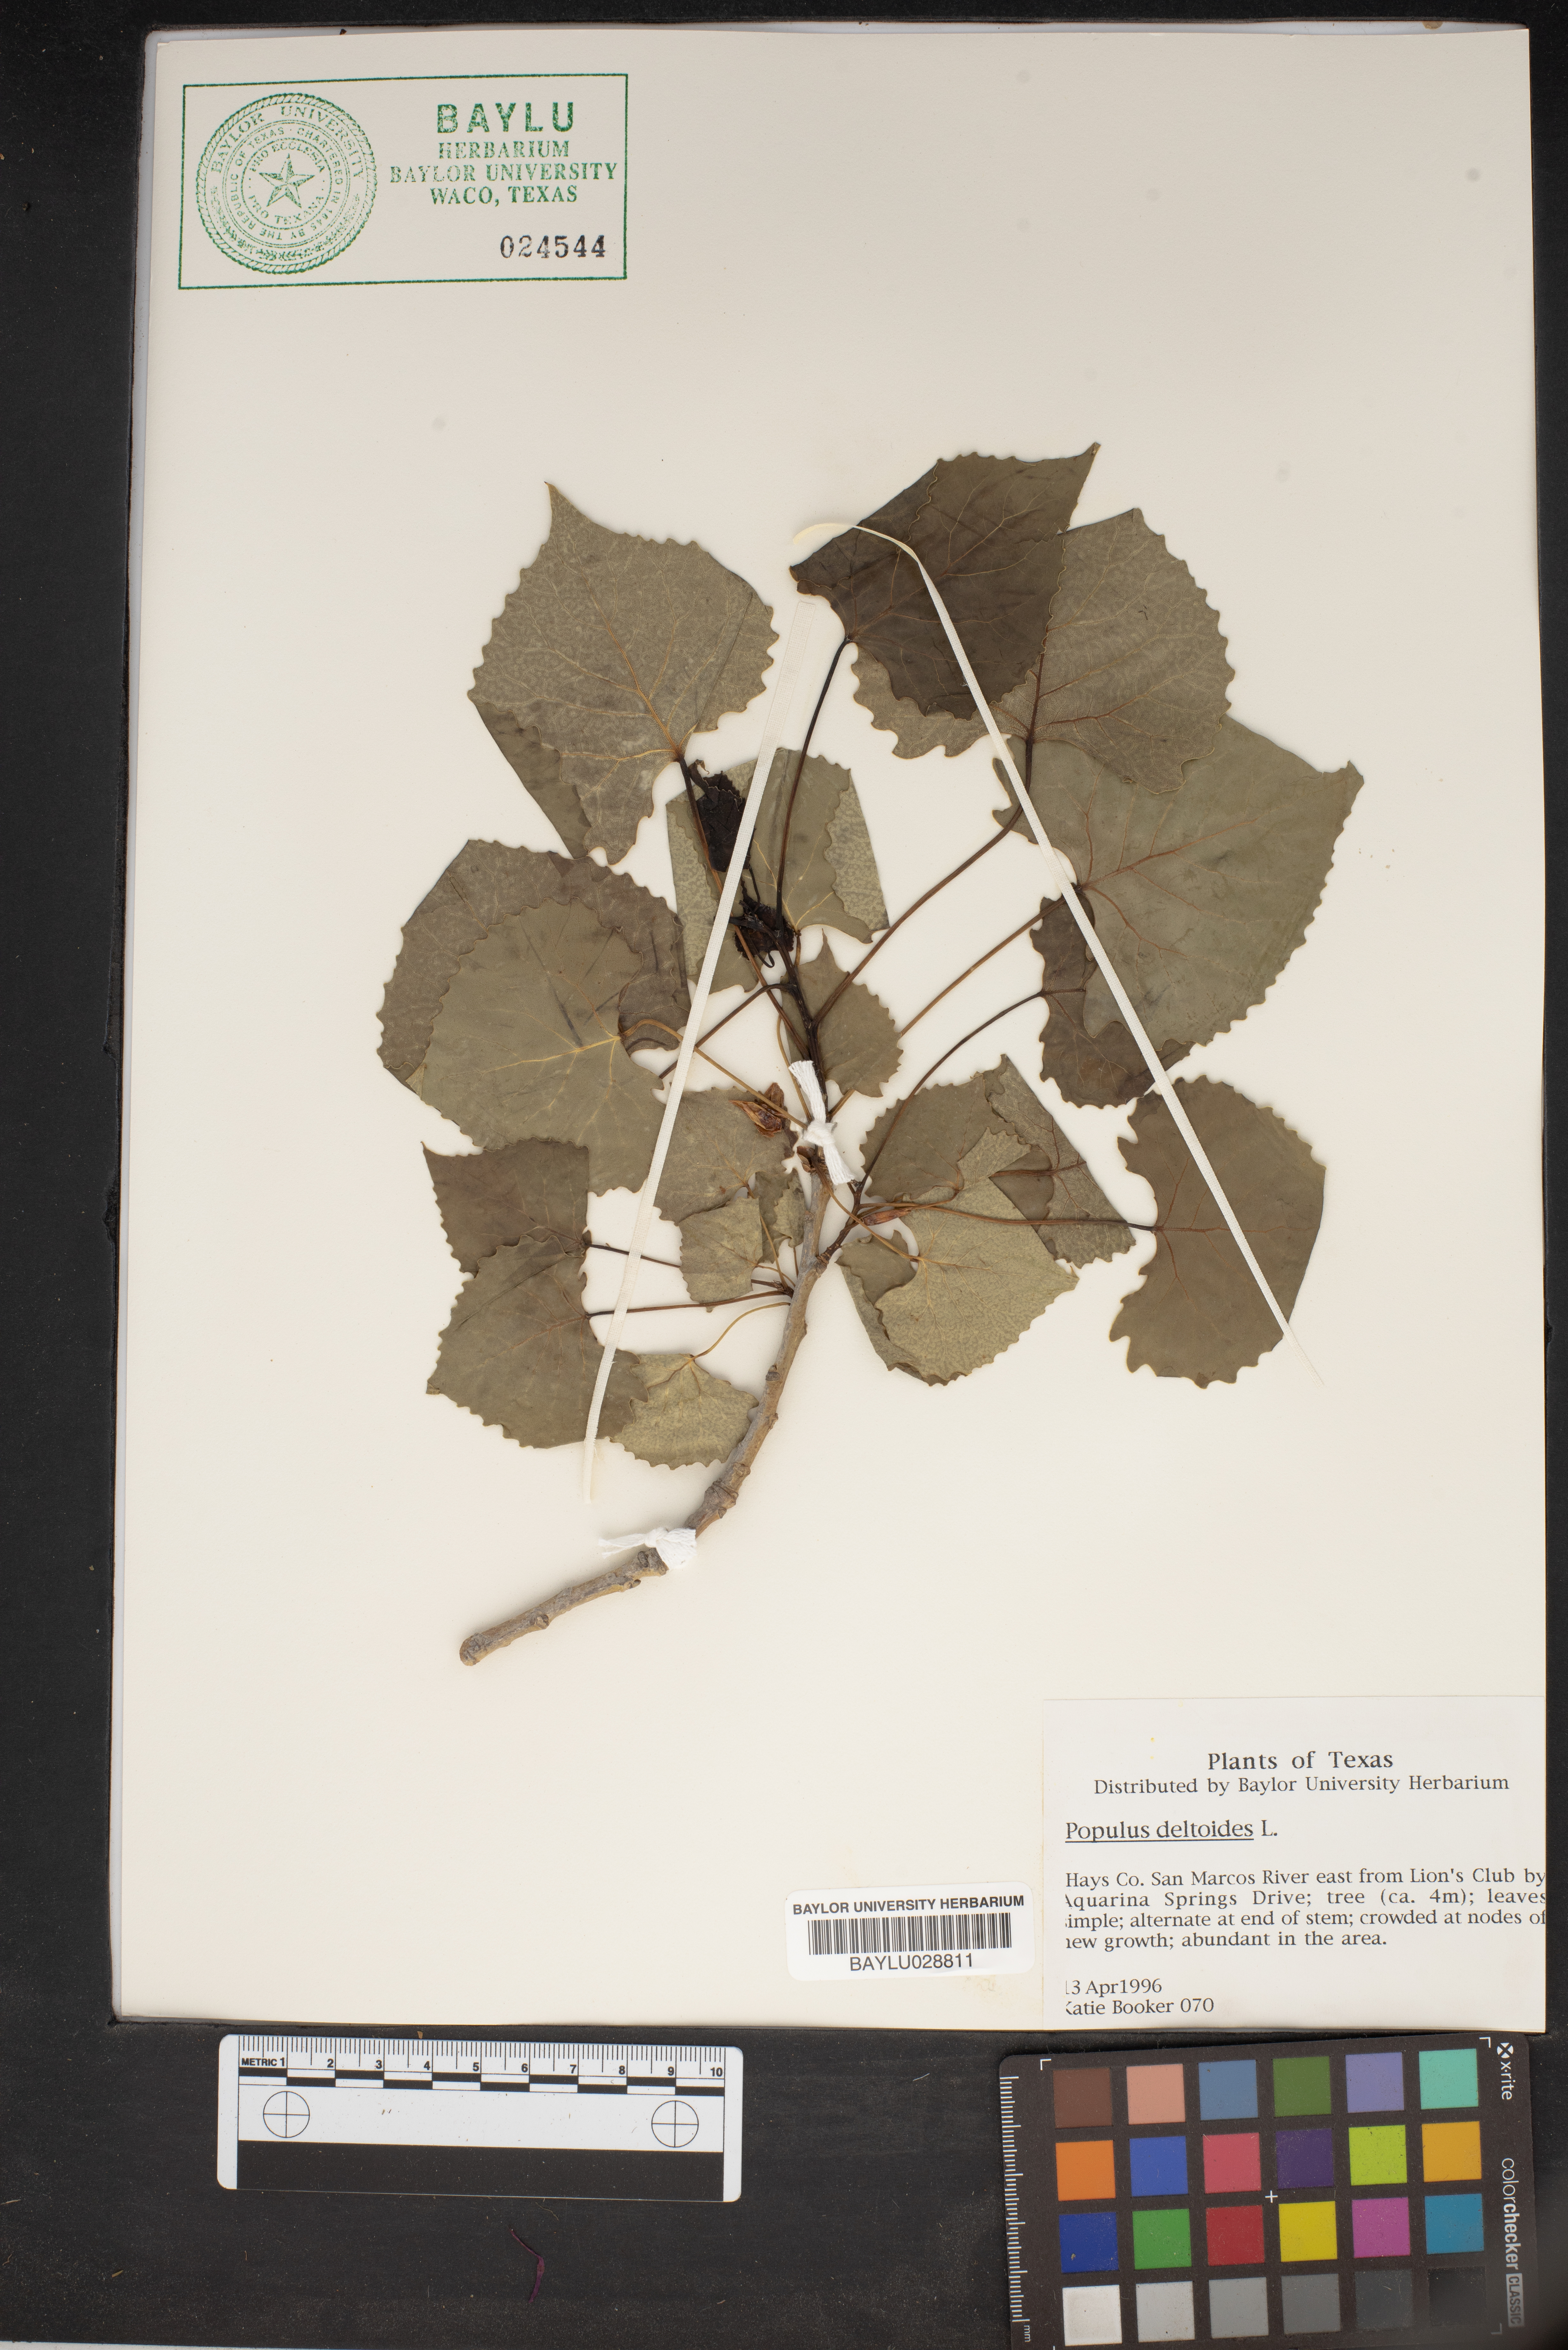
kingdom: Plantae
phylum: Tracheophyta
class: Magnoliopsida
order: Malpighiales
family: Salicaceae
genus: Populus
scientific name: Populus deltoides
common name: Eastern cottonwood
